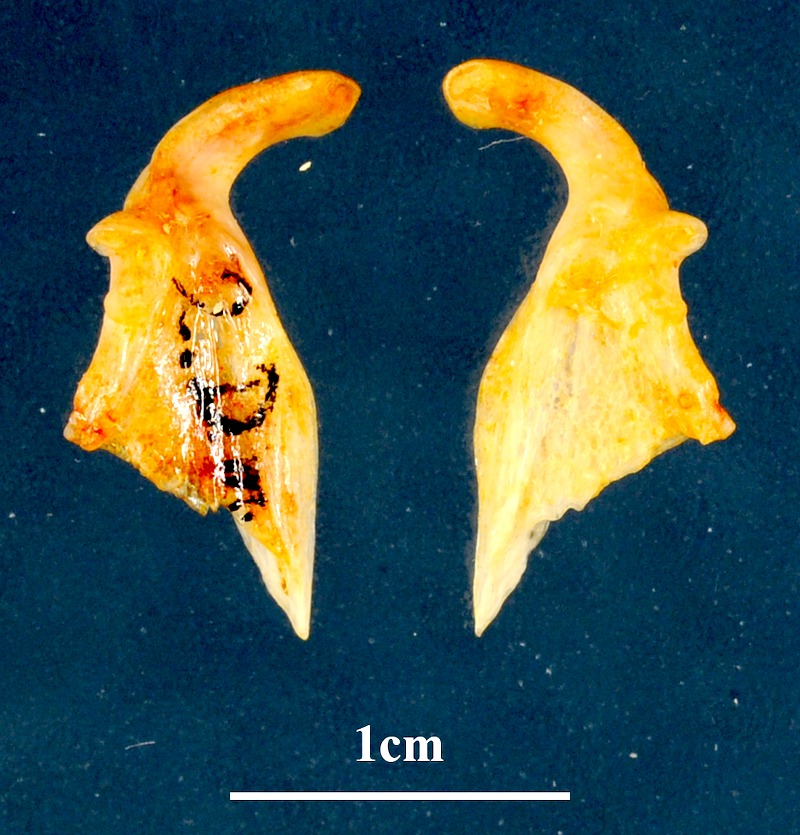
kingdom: Animalia
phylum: Chordata
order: Perciformes
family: Sparidae
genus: Dentex
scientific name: Dentex macrophthalmus
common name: Large-eyed dentex
